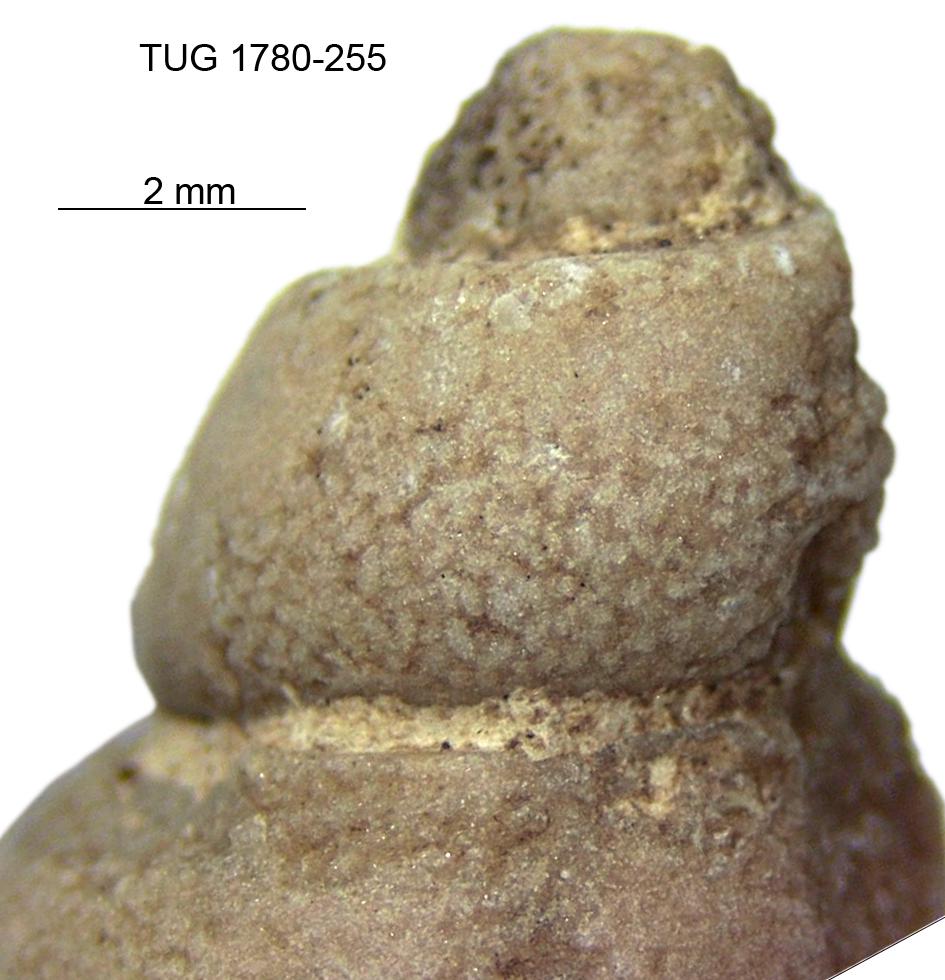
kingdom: Animalia
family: Coprulidae
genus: Coprulus
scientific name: Coprulus
